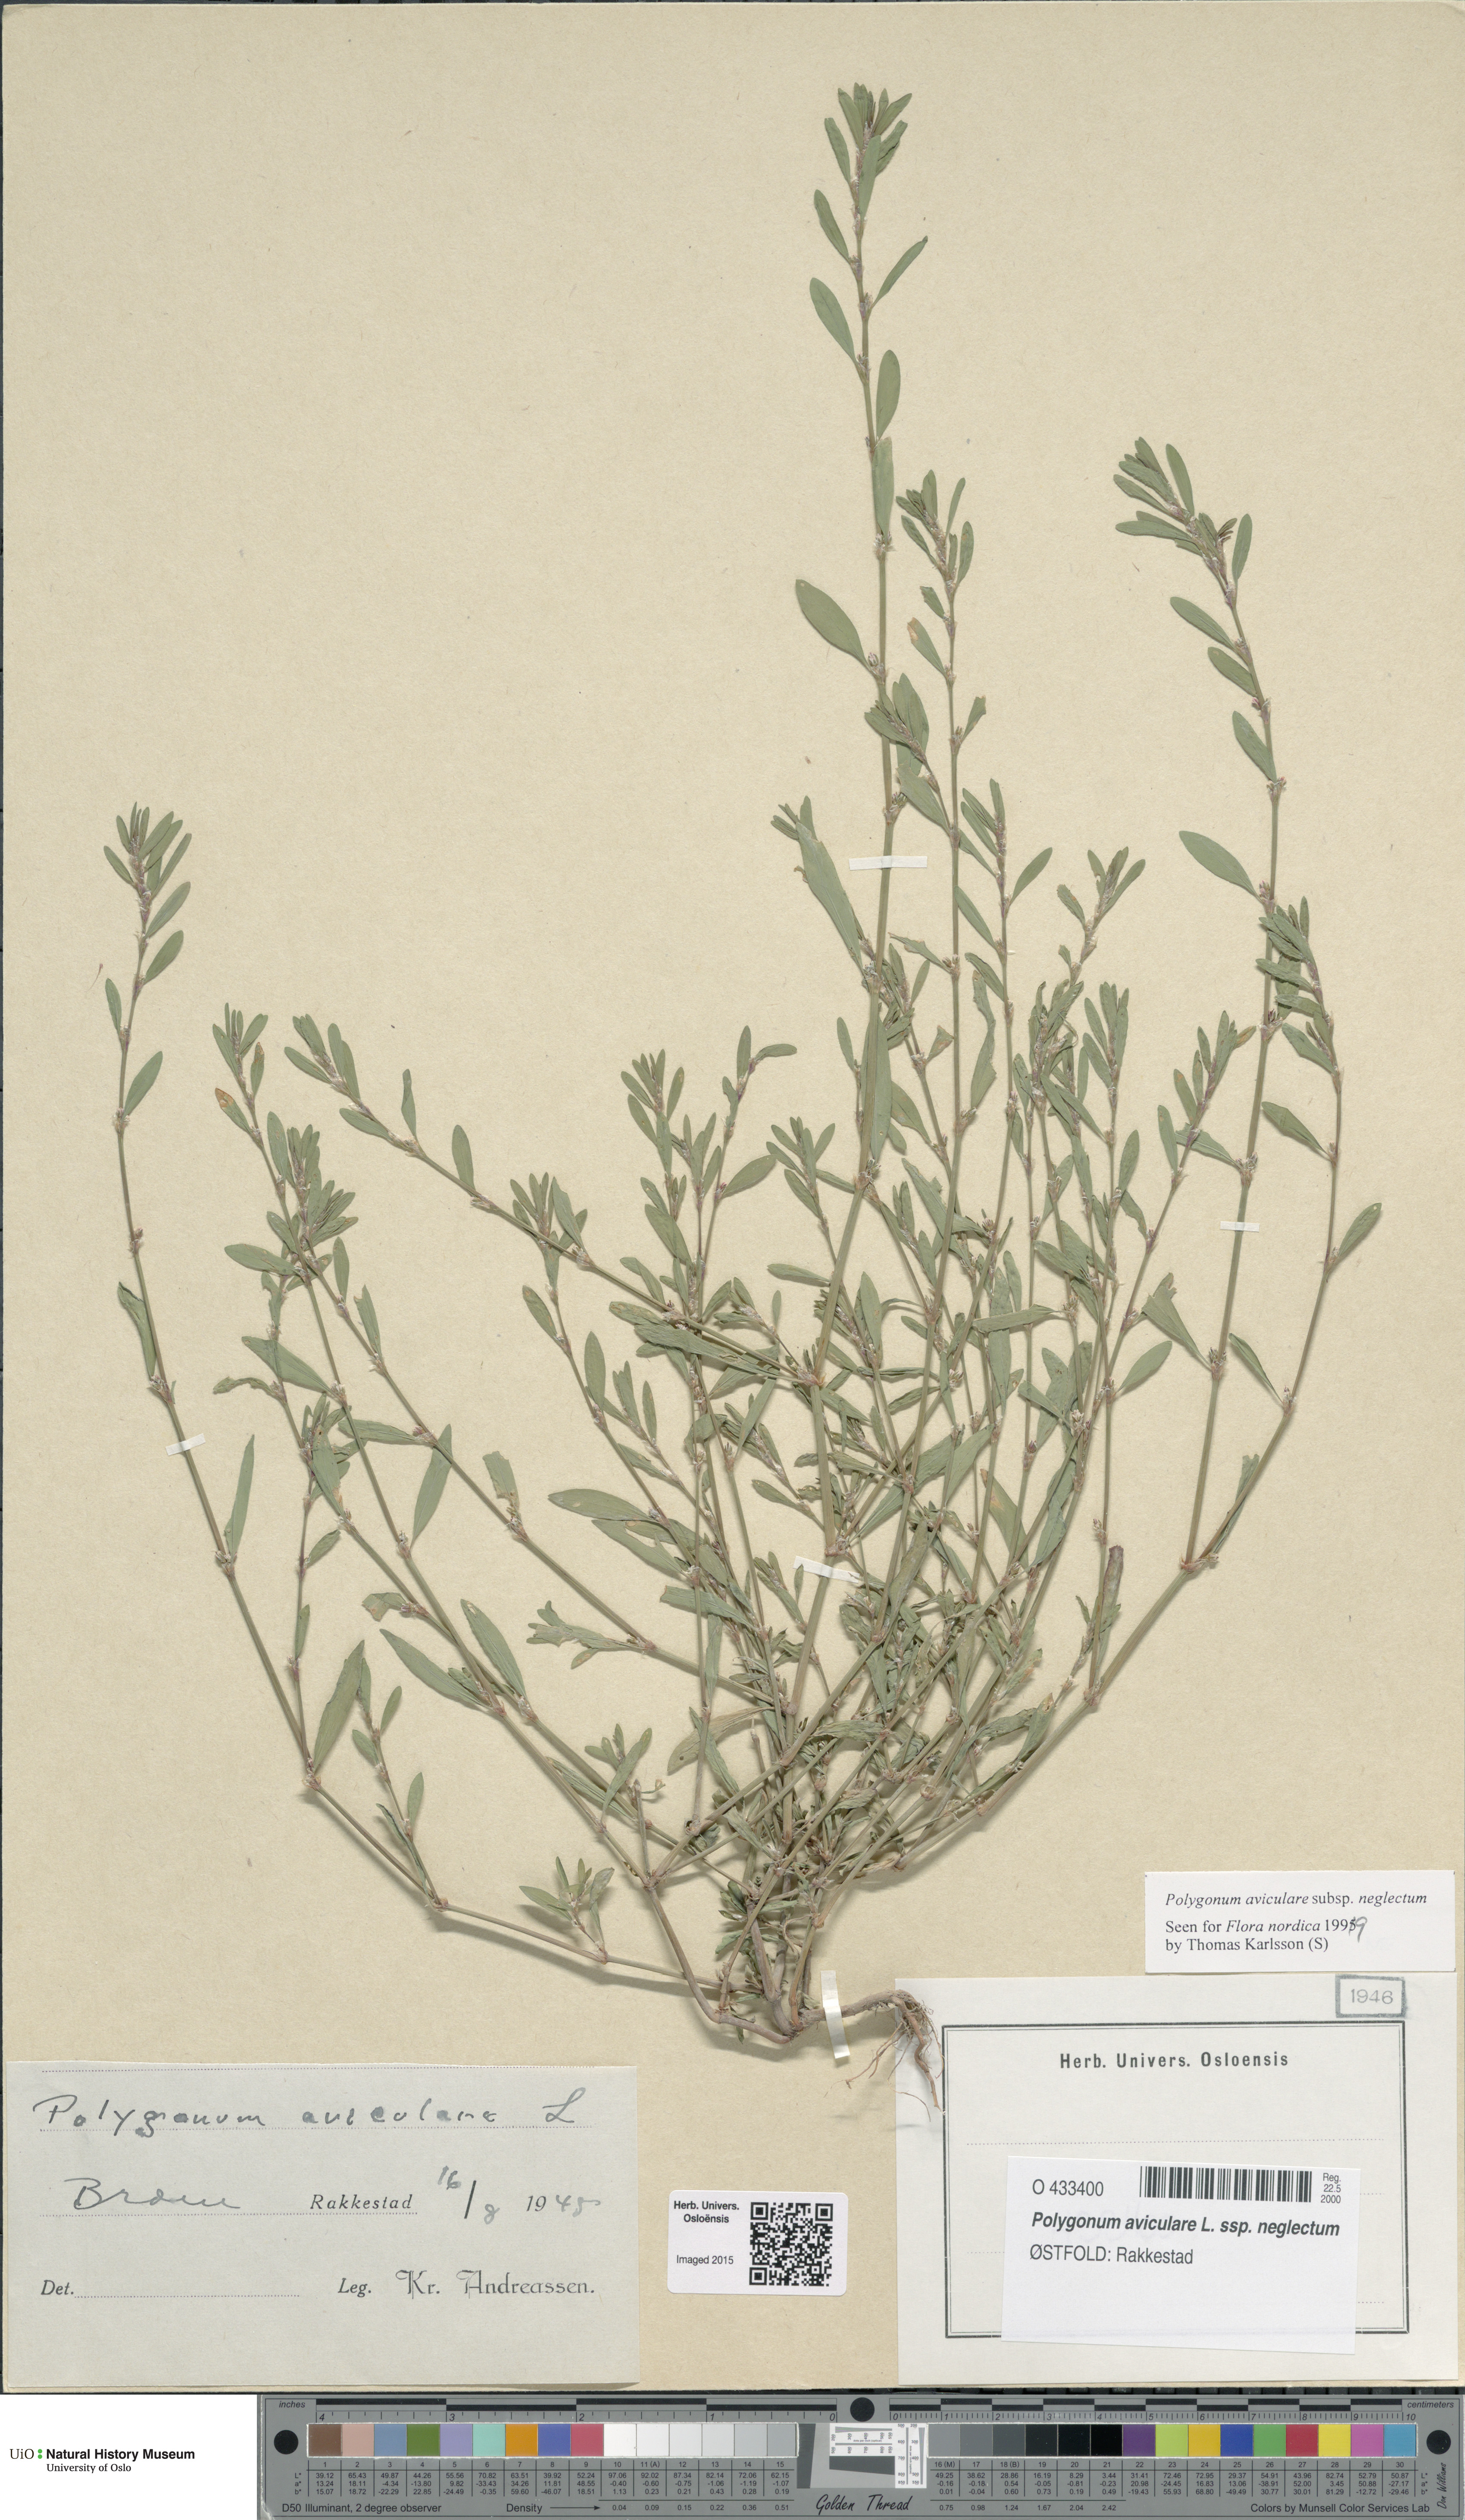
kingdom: Plantae
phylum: Tracheophyta
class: Magnoliopsida
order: Caryophyllales
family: Polygonaceae
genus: Polygonum
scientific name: Polygonum aviculare
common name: Prostrate knotweed
